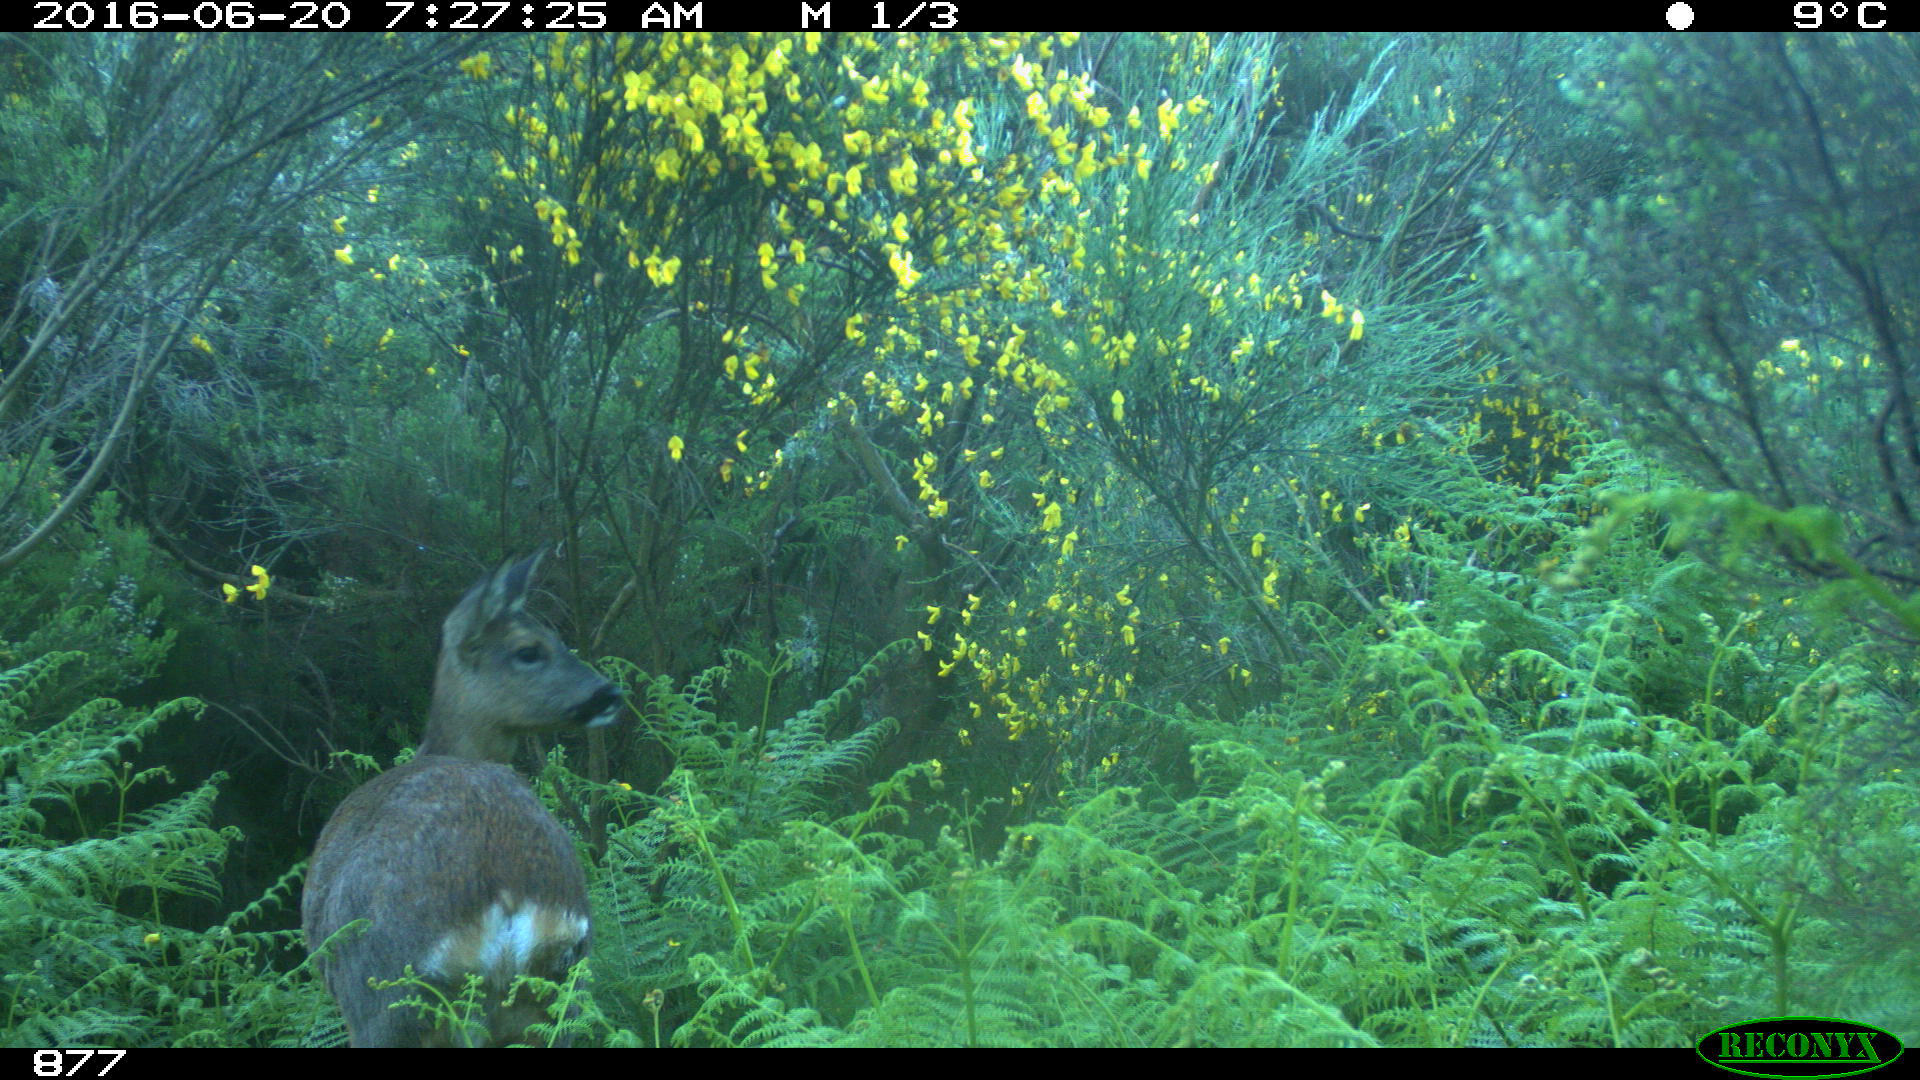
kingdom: Animalia
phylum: Chordata
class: Mammalia
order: Artiodactyla
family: Cervidae
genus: Capreolus
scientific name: Capreolus capreolus
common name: Western roe deer
